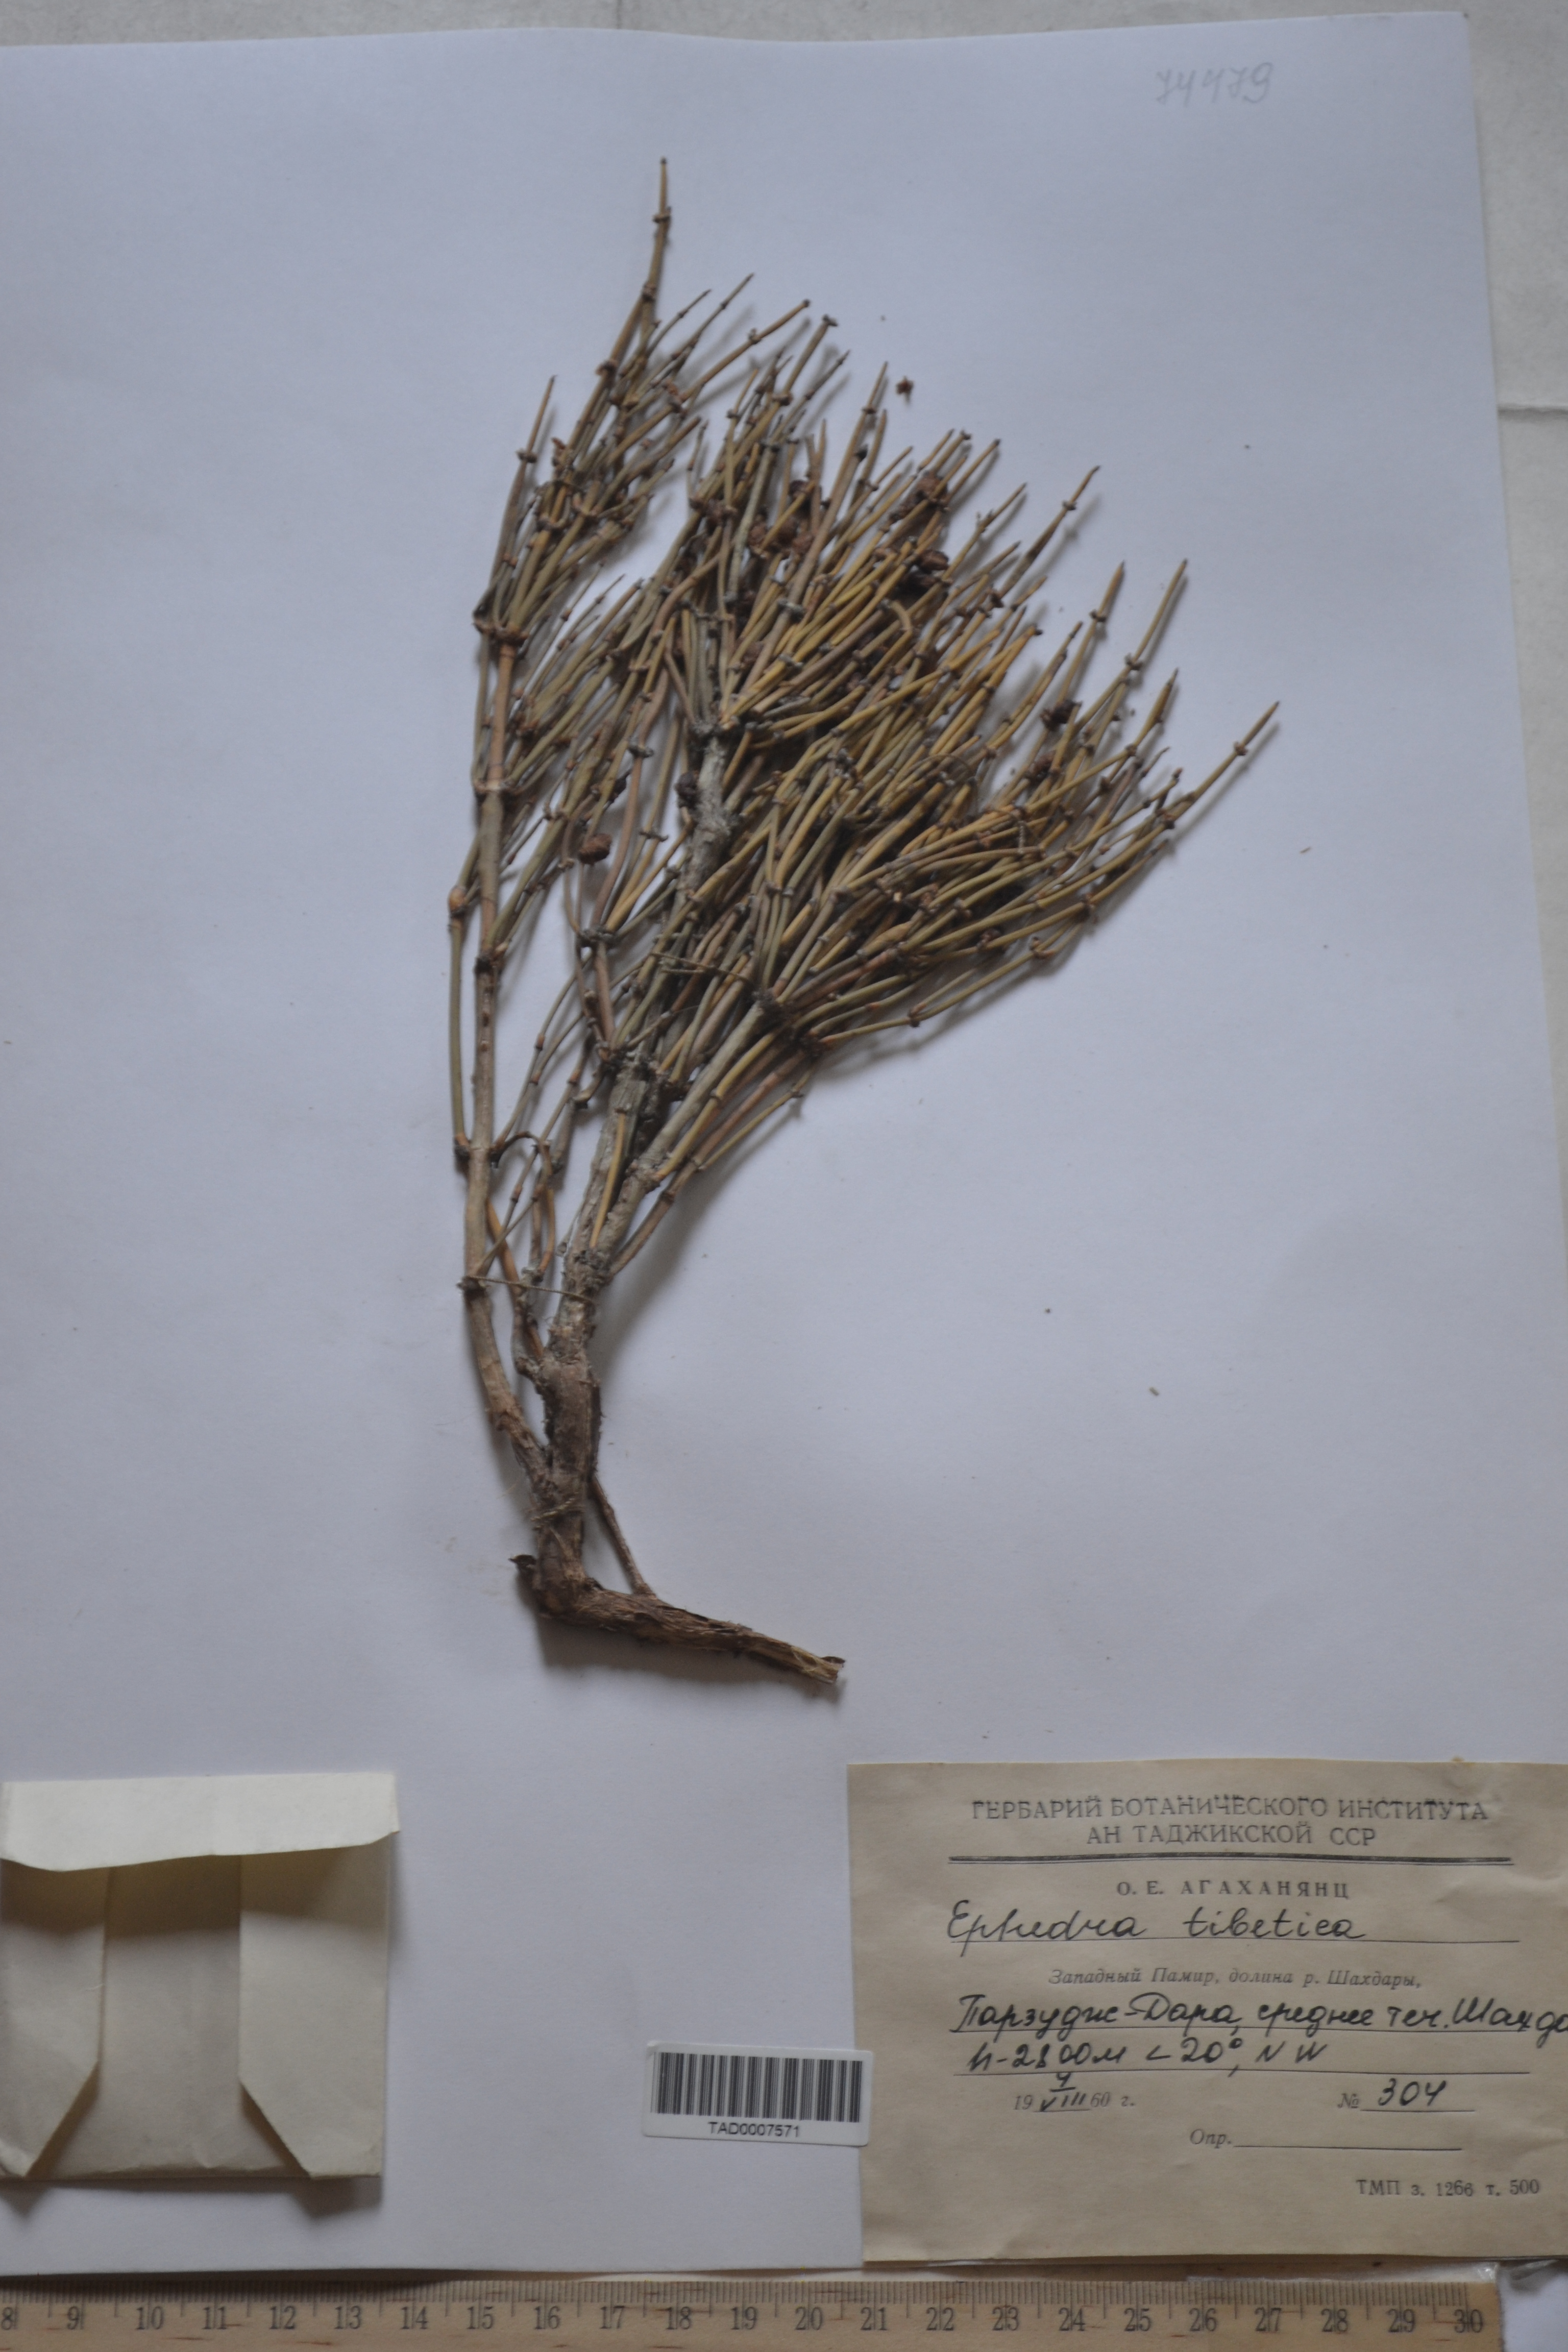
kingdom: Plantae
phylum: Tracheophyta
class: Gnetopsida
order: Ephedrales
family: Ephedraceae
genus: Ephedra
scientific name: Ephedra intermedia
